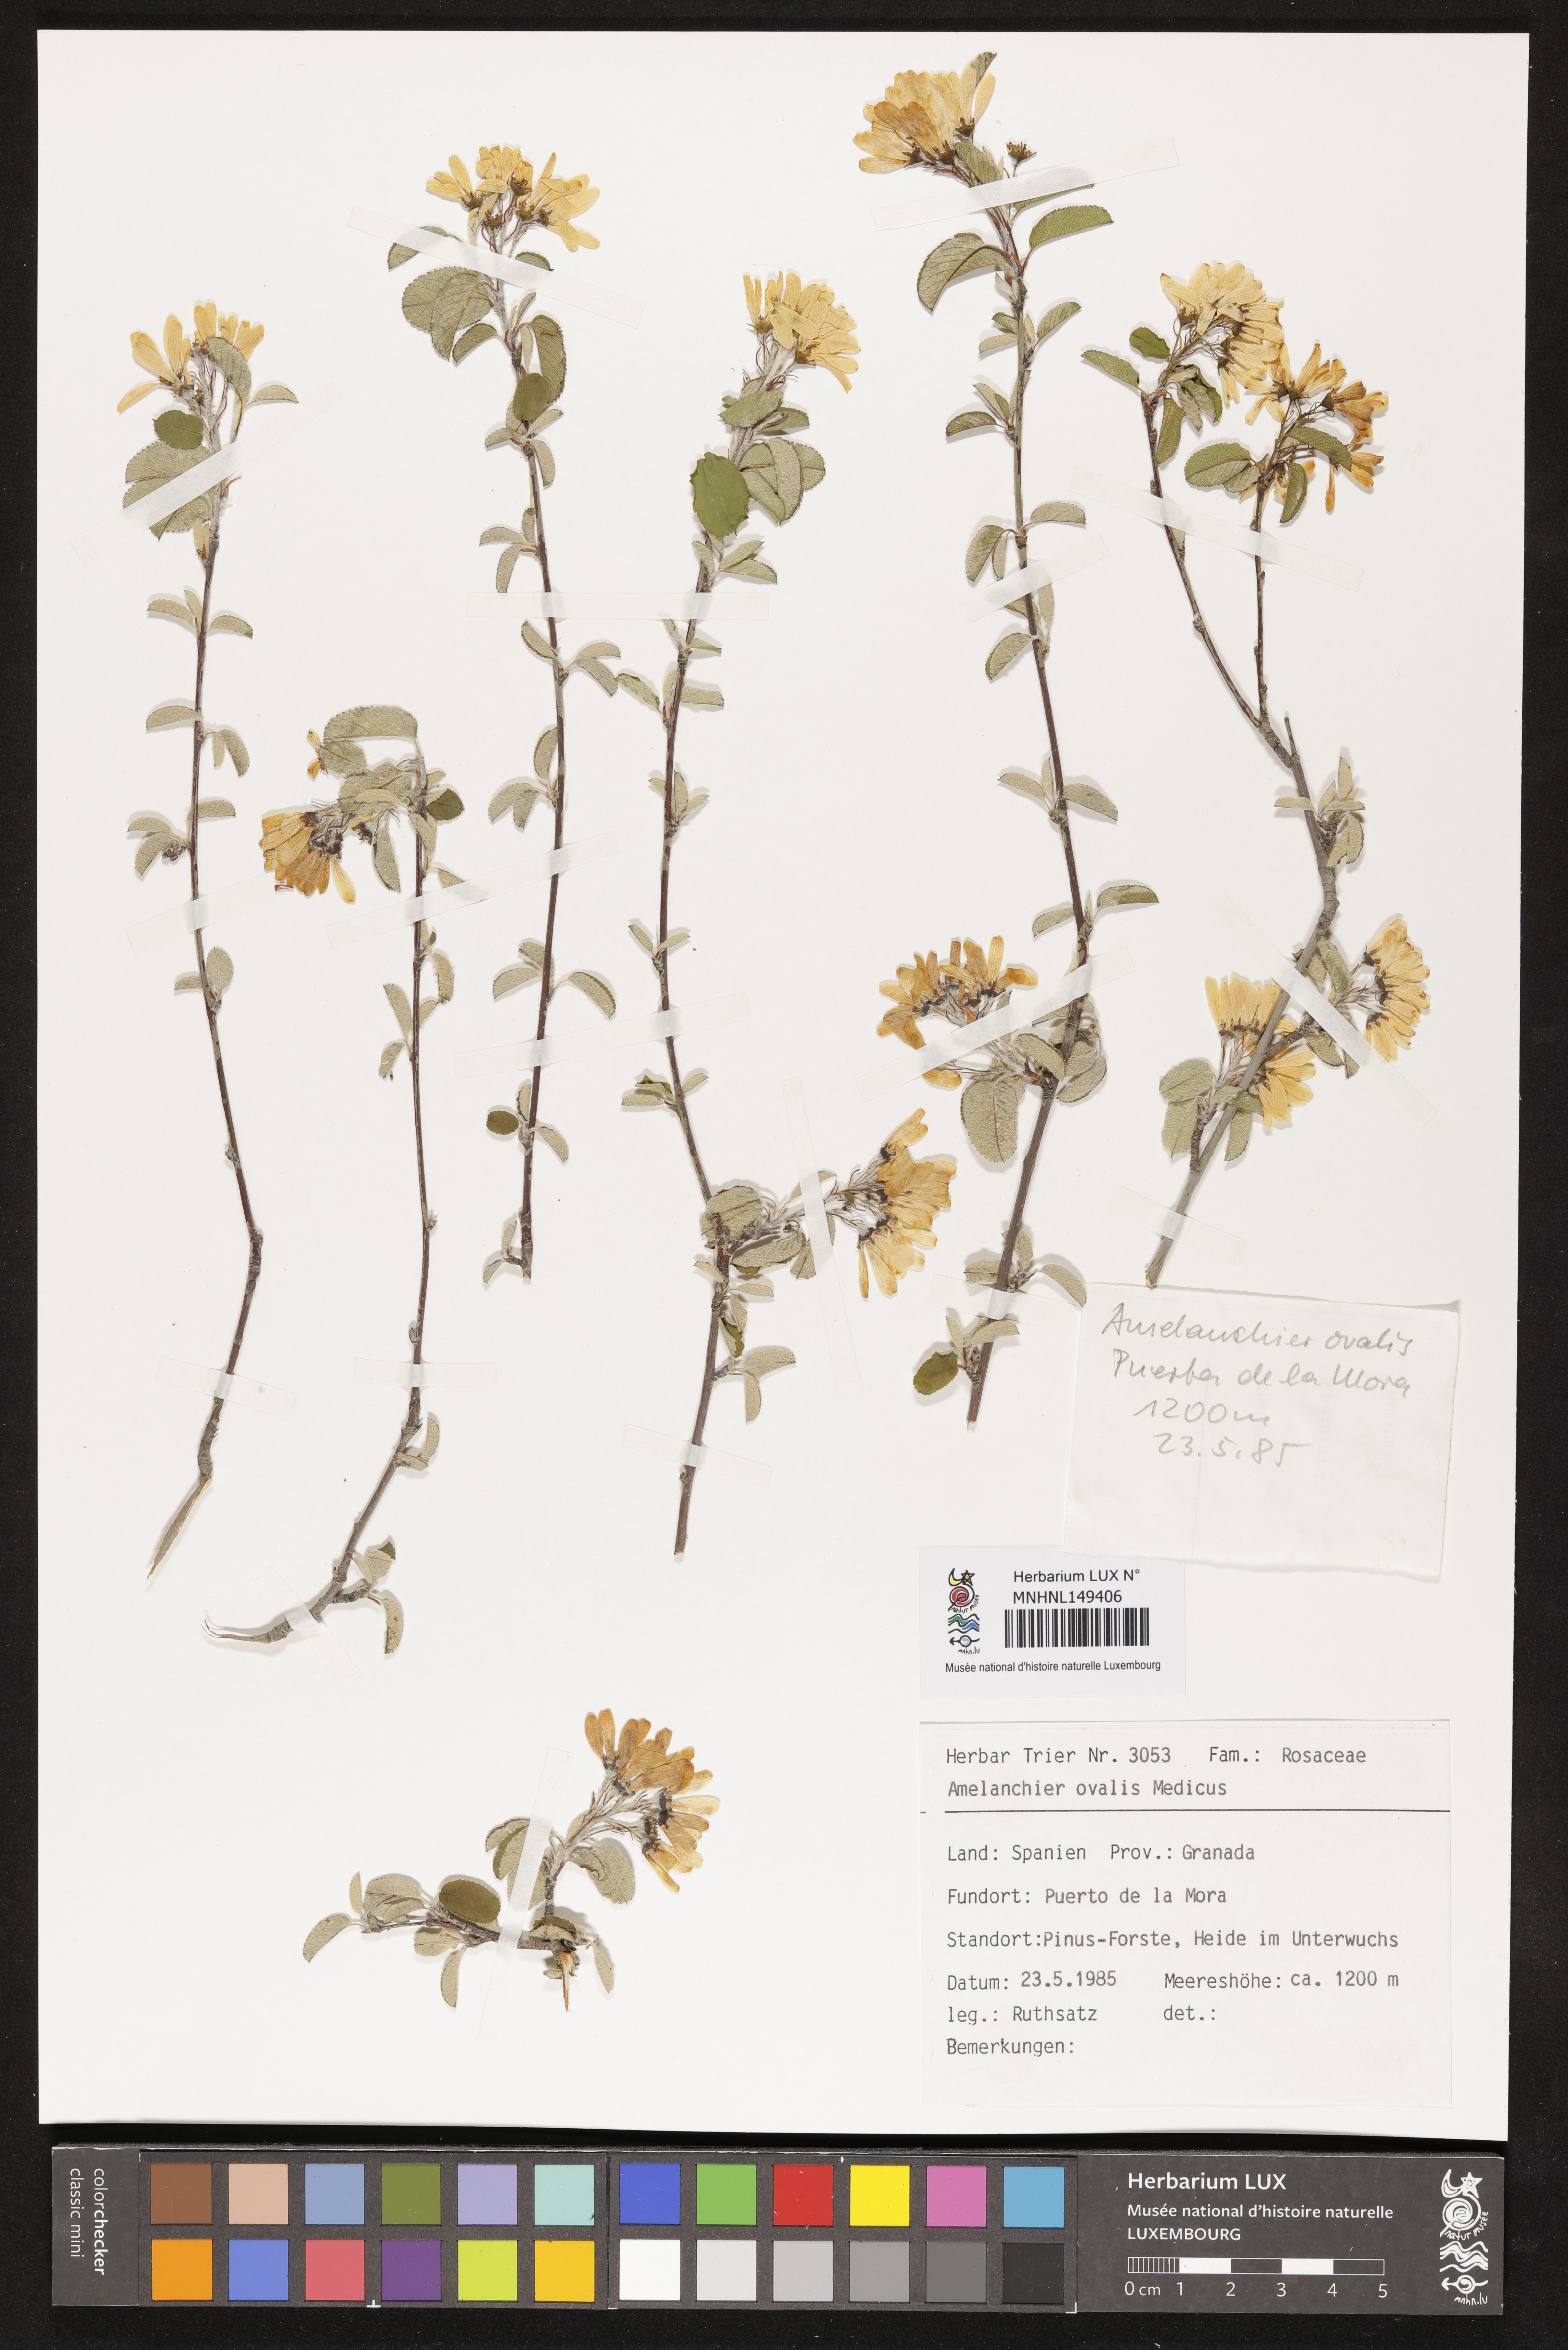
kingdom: Plantae
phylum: Tracheophyta
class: Magnoliopsida
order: Rosales
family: Rosaceae
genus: Amelanchier
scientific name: Amelanchier ovalis
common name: Serviceberry
